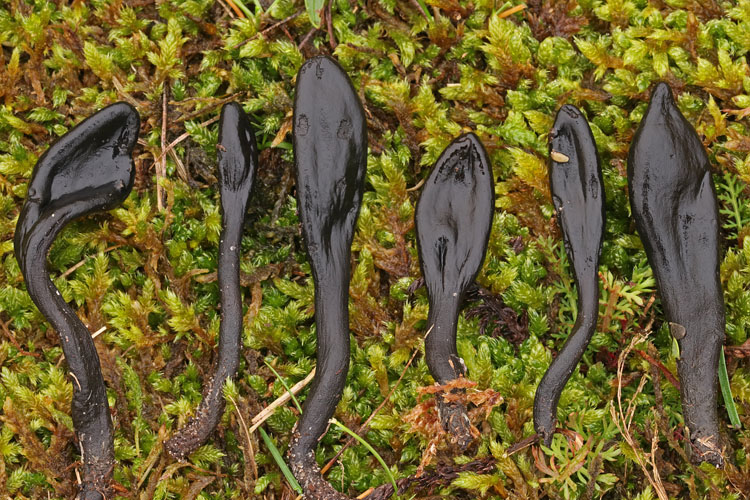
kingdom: Fungi
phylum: Ascomycota
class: Geoglossomycetes
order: Geoglossales
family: Geoglossaceae
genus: Geoglossum
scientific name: Geoglossum cookeianum
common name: bred jordtunge
